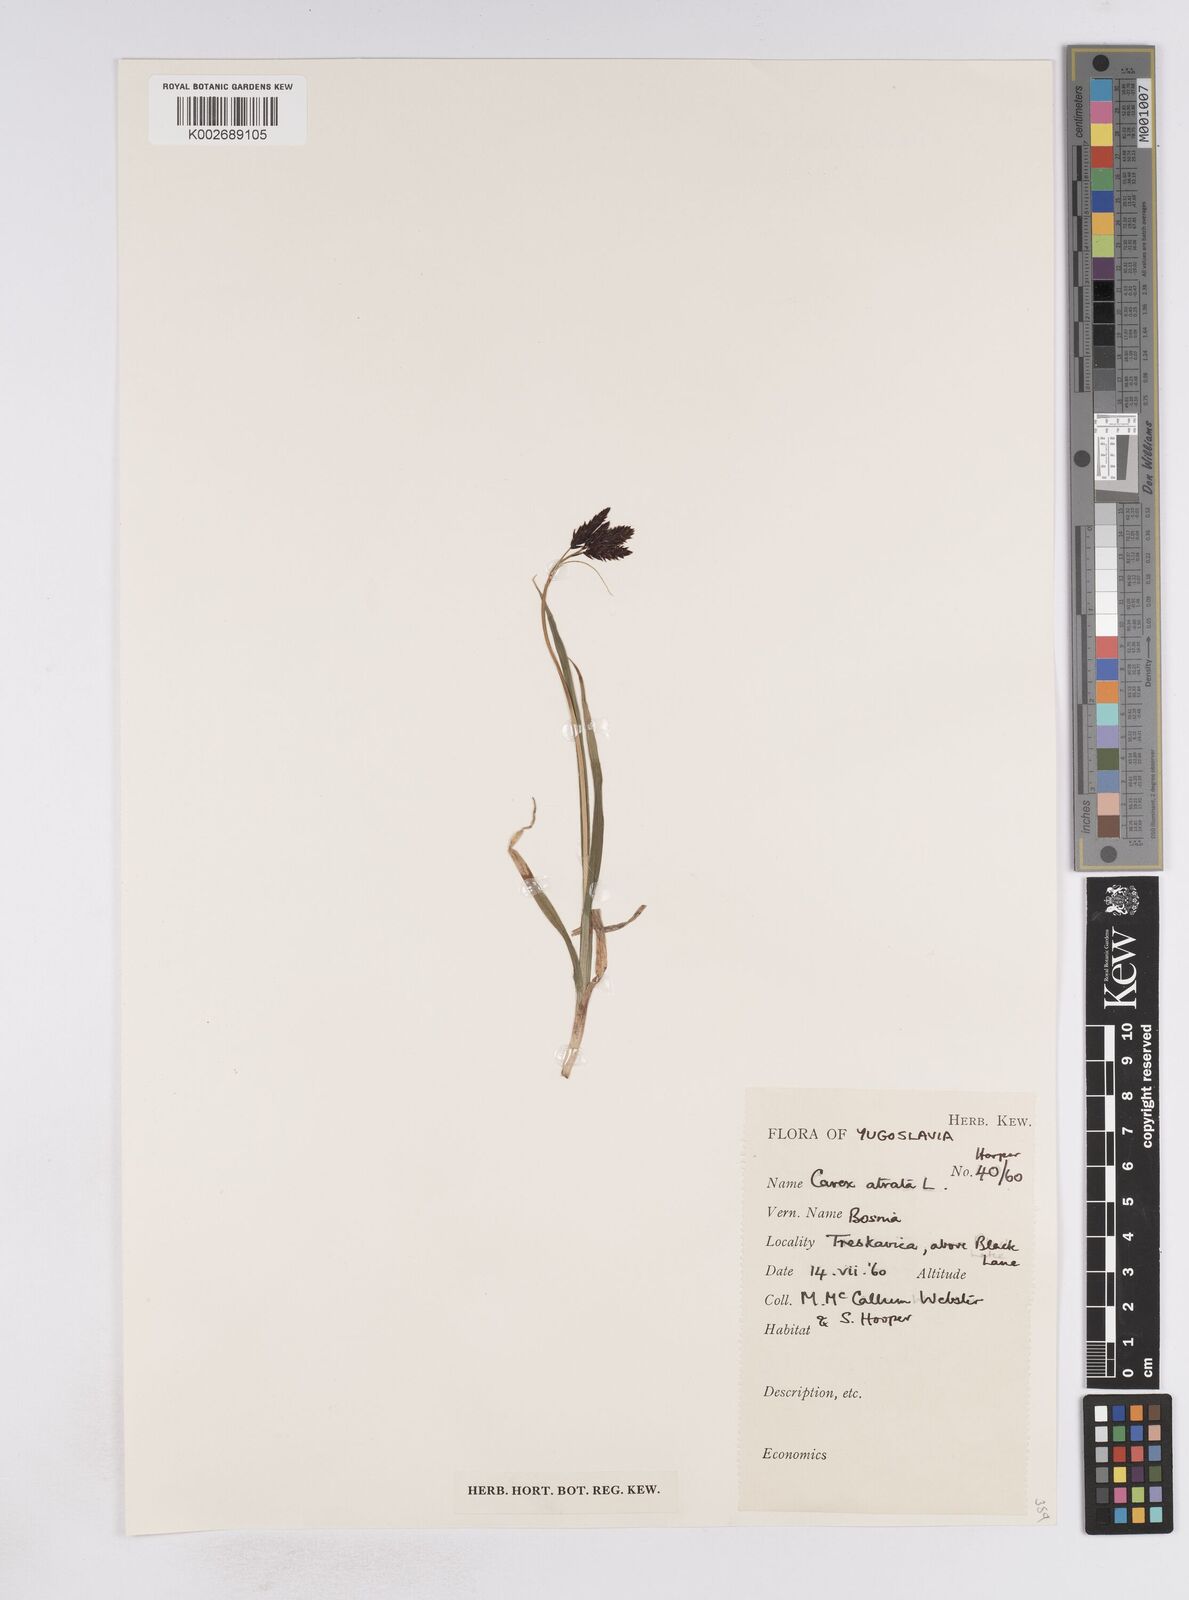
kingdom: Plantae
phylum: Tracheophyta
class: Liliopsida
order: Poales
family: Cyperaceae
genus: Carex
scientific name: Carex atrata
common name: Black alpine sedge
